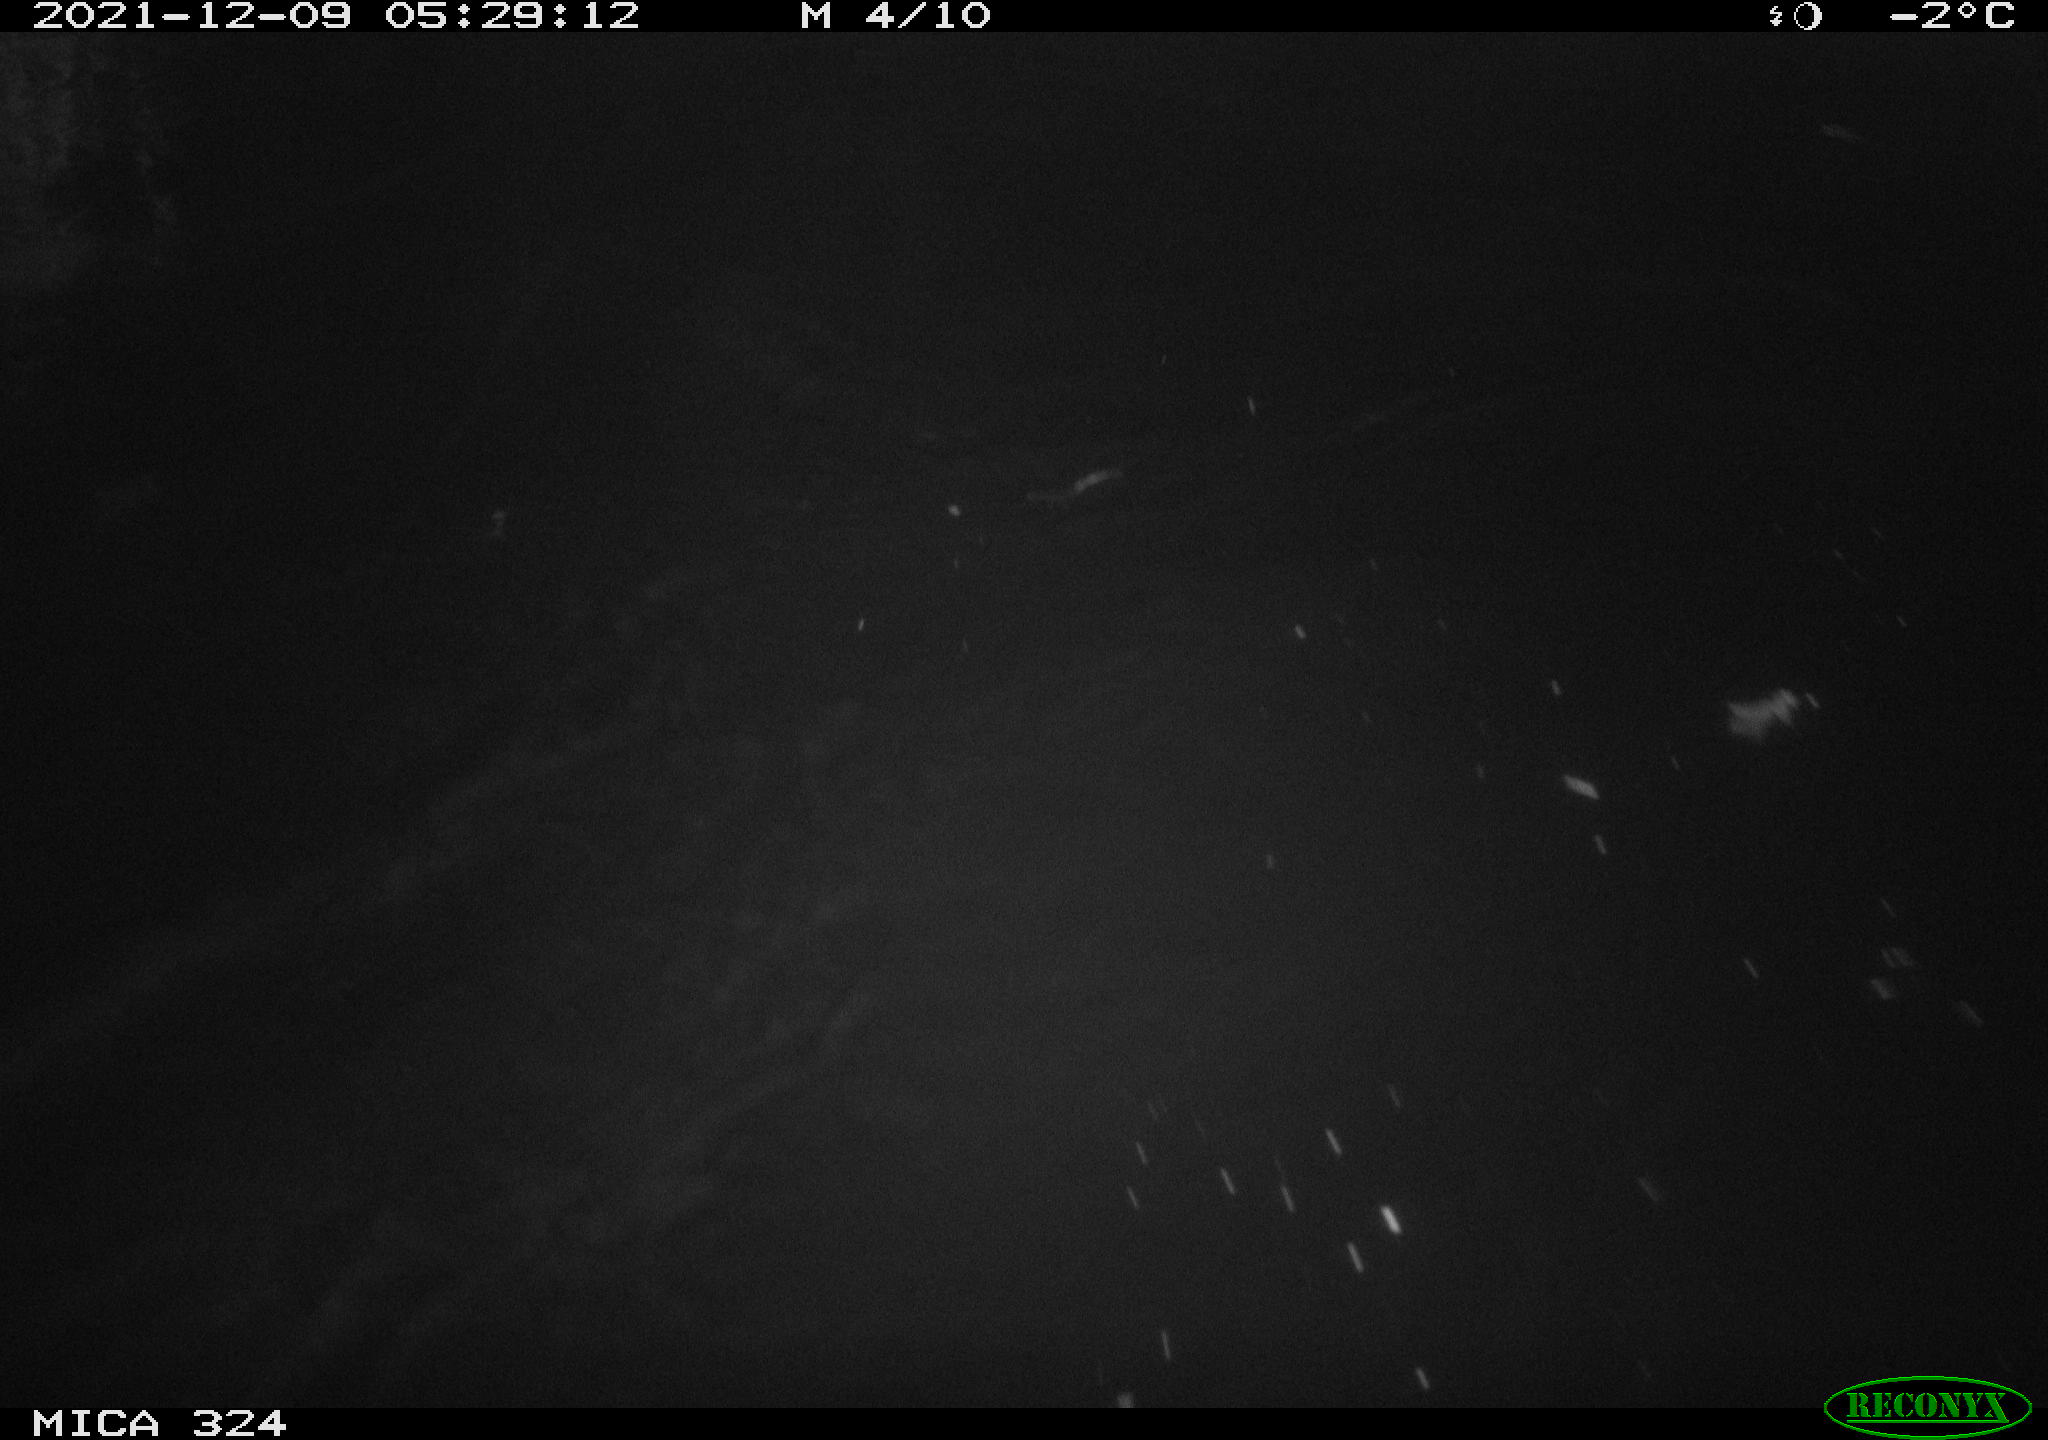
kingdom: Animalia
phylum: Chordata
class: Mammalia
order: Rodentia
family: Cricetidae
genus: Ondatra
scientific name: Ondatra zibethicus
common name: Muskrat
